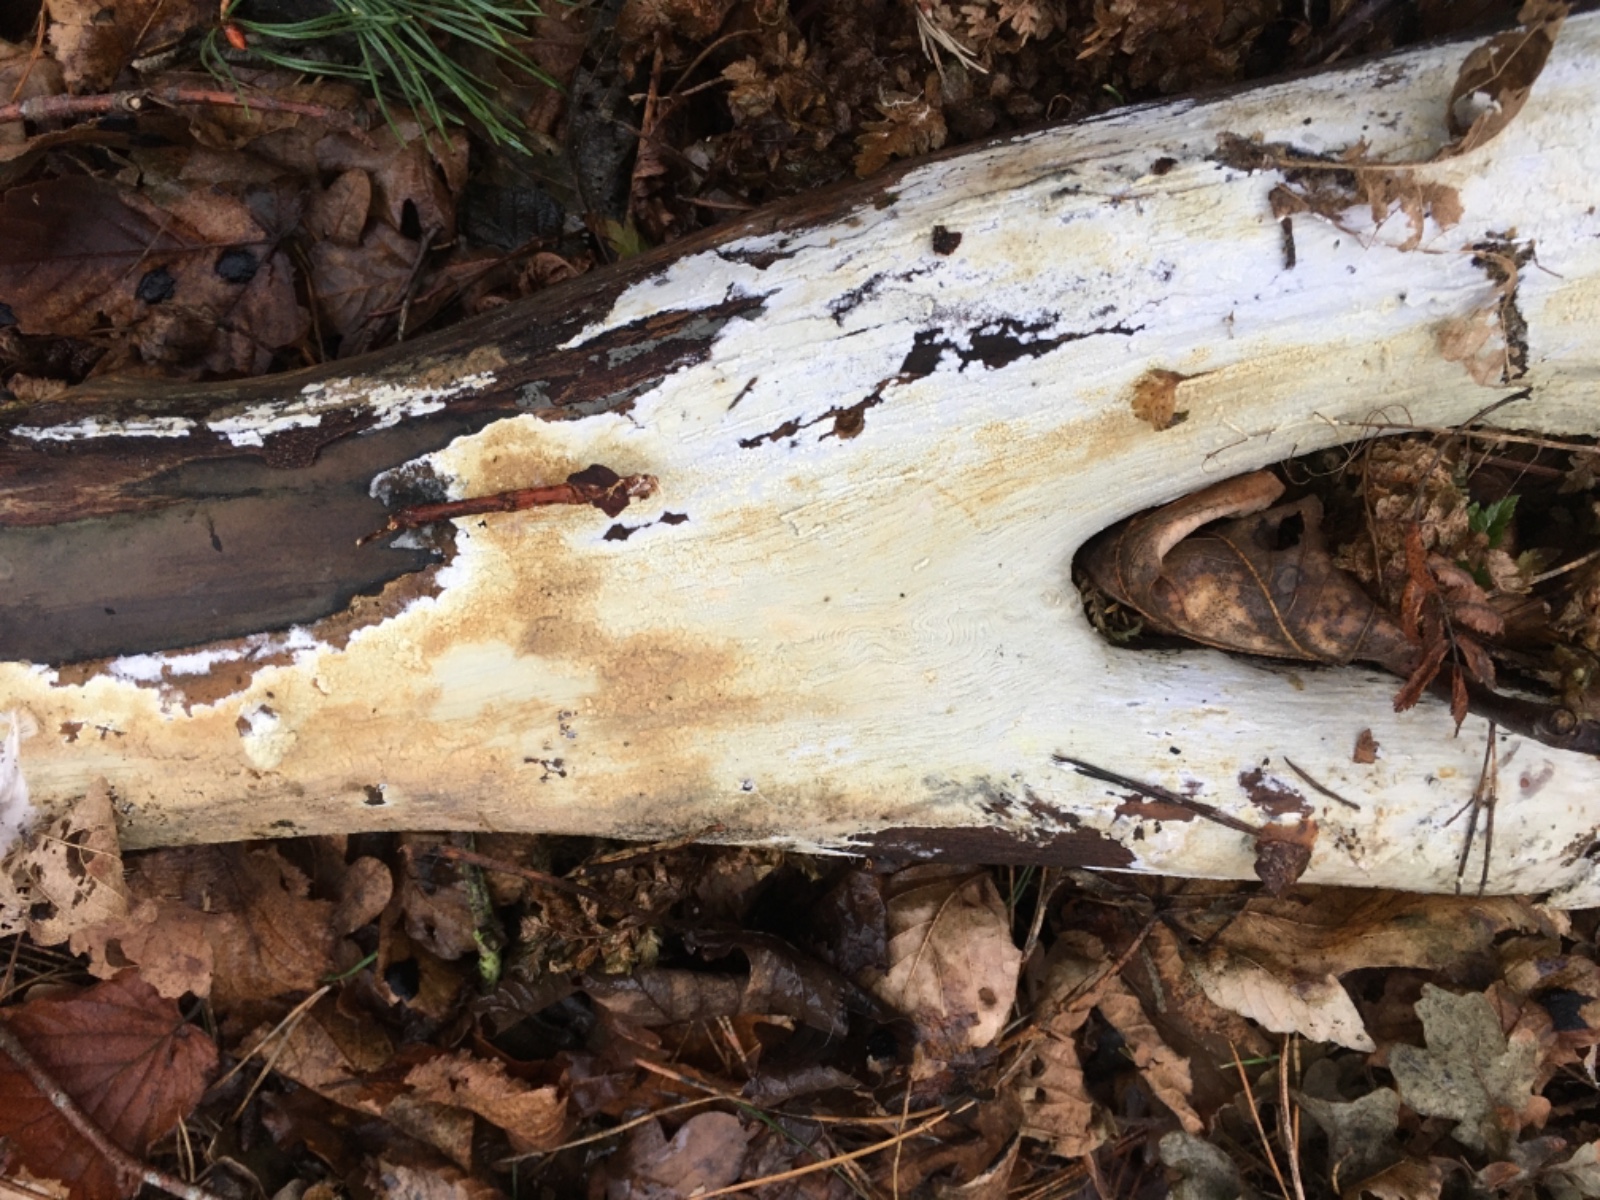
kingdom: Fungi
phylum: Basidiomycota
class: Agaricomycetes
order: Corticiales
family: Corticiaceae
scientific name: Corticiaceae
